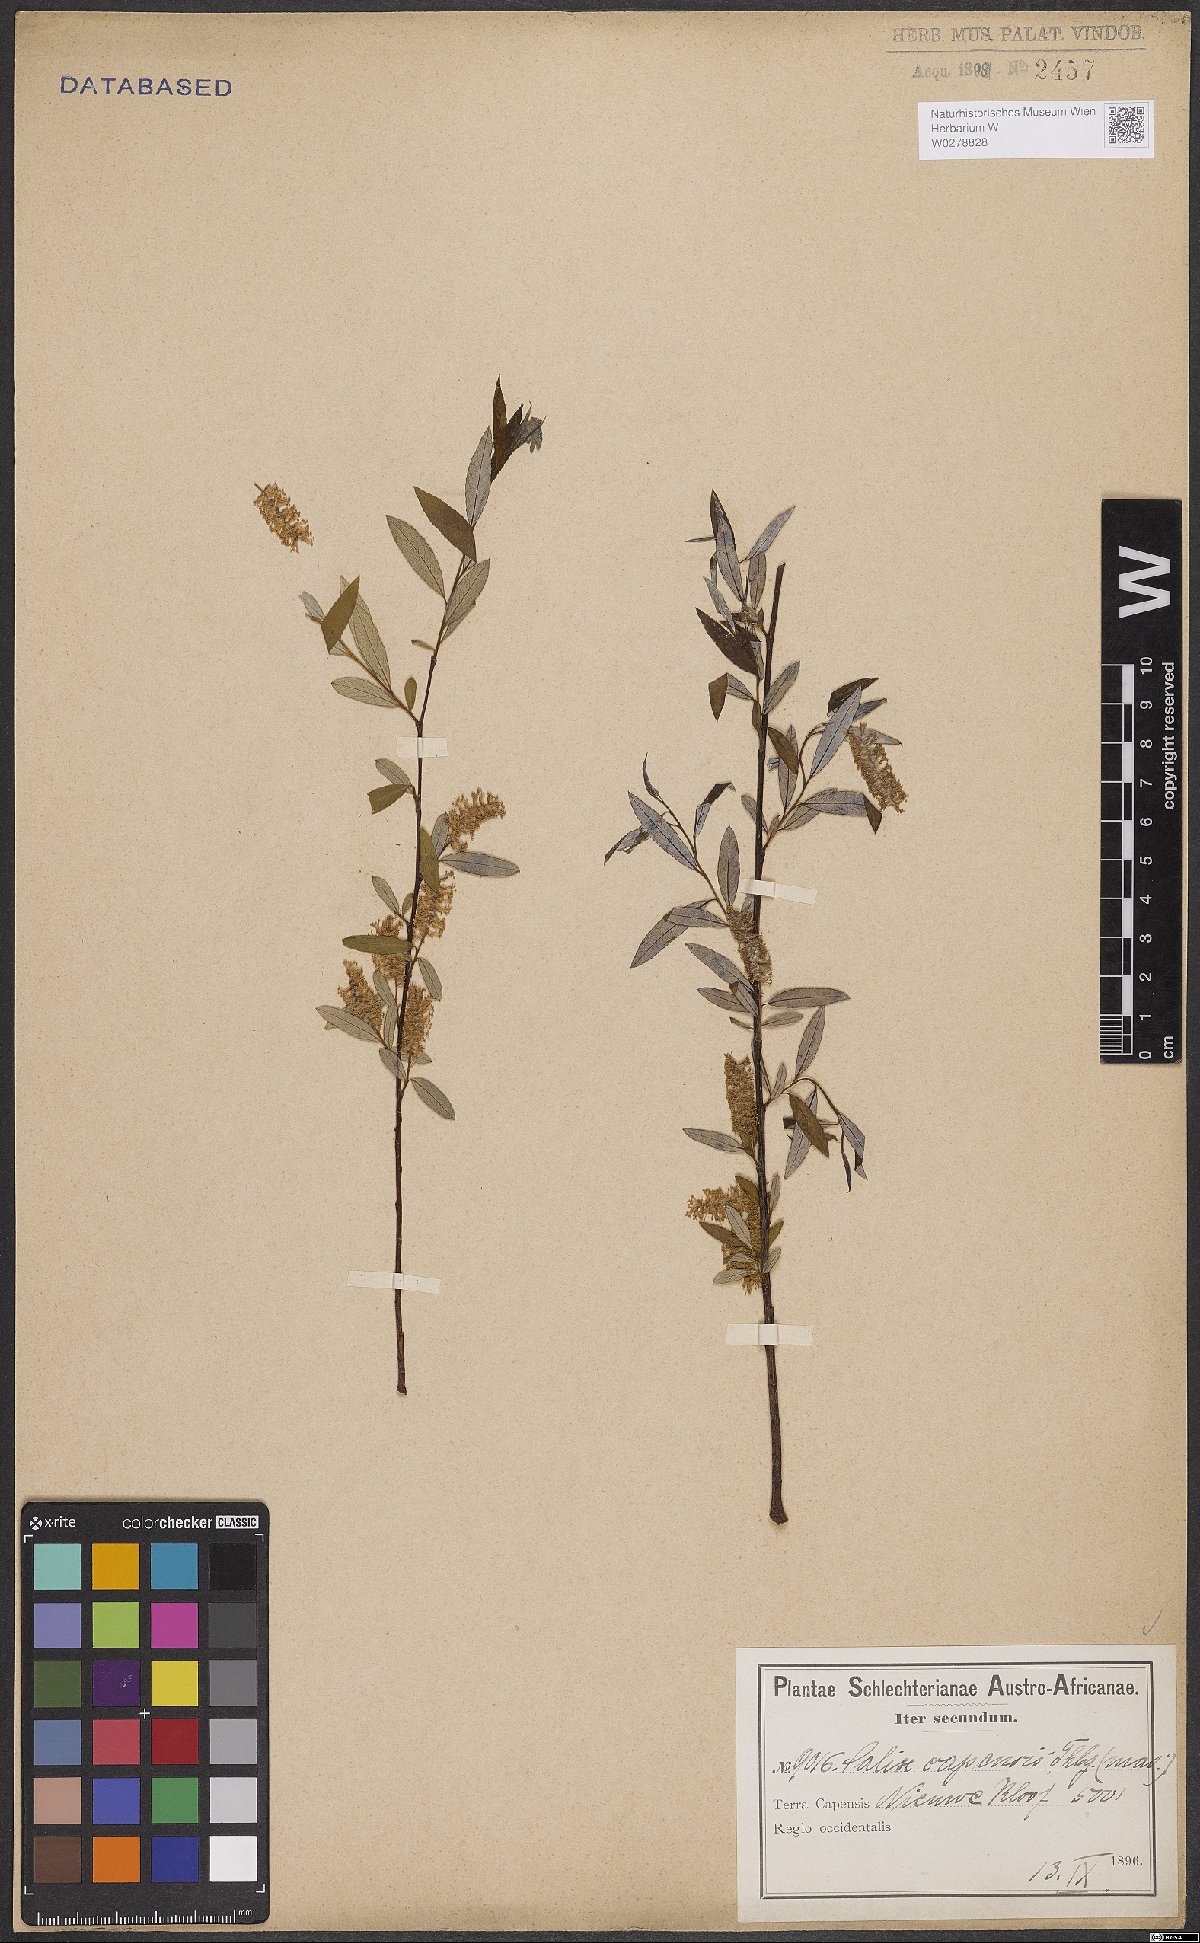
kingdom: Plantae
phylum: Tracheophyta
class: Magnoliopsida
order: Malpighiales
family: Salicaceae
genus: Salix
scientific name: Salix mucronata
